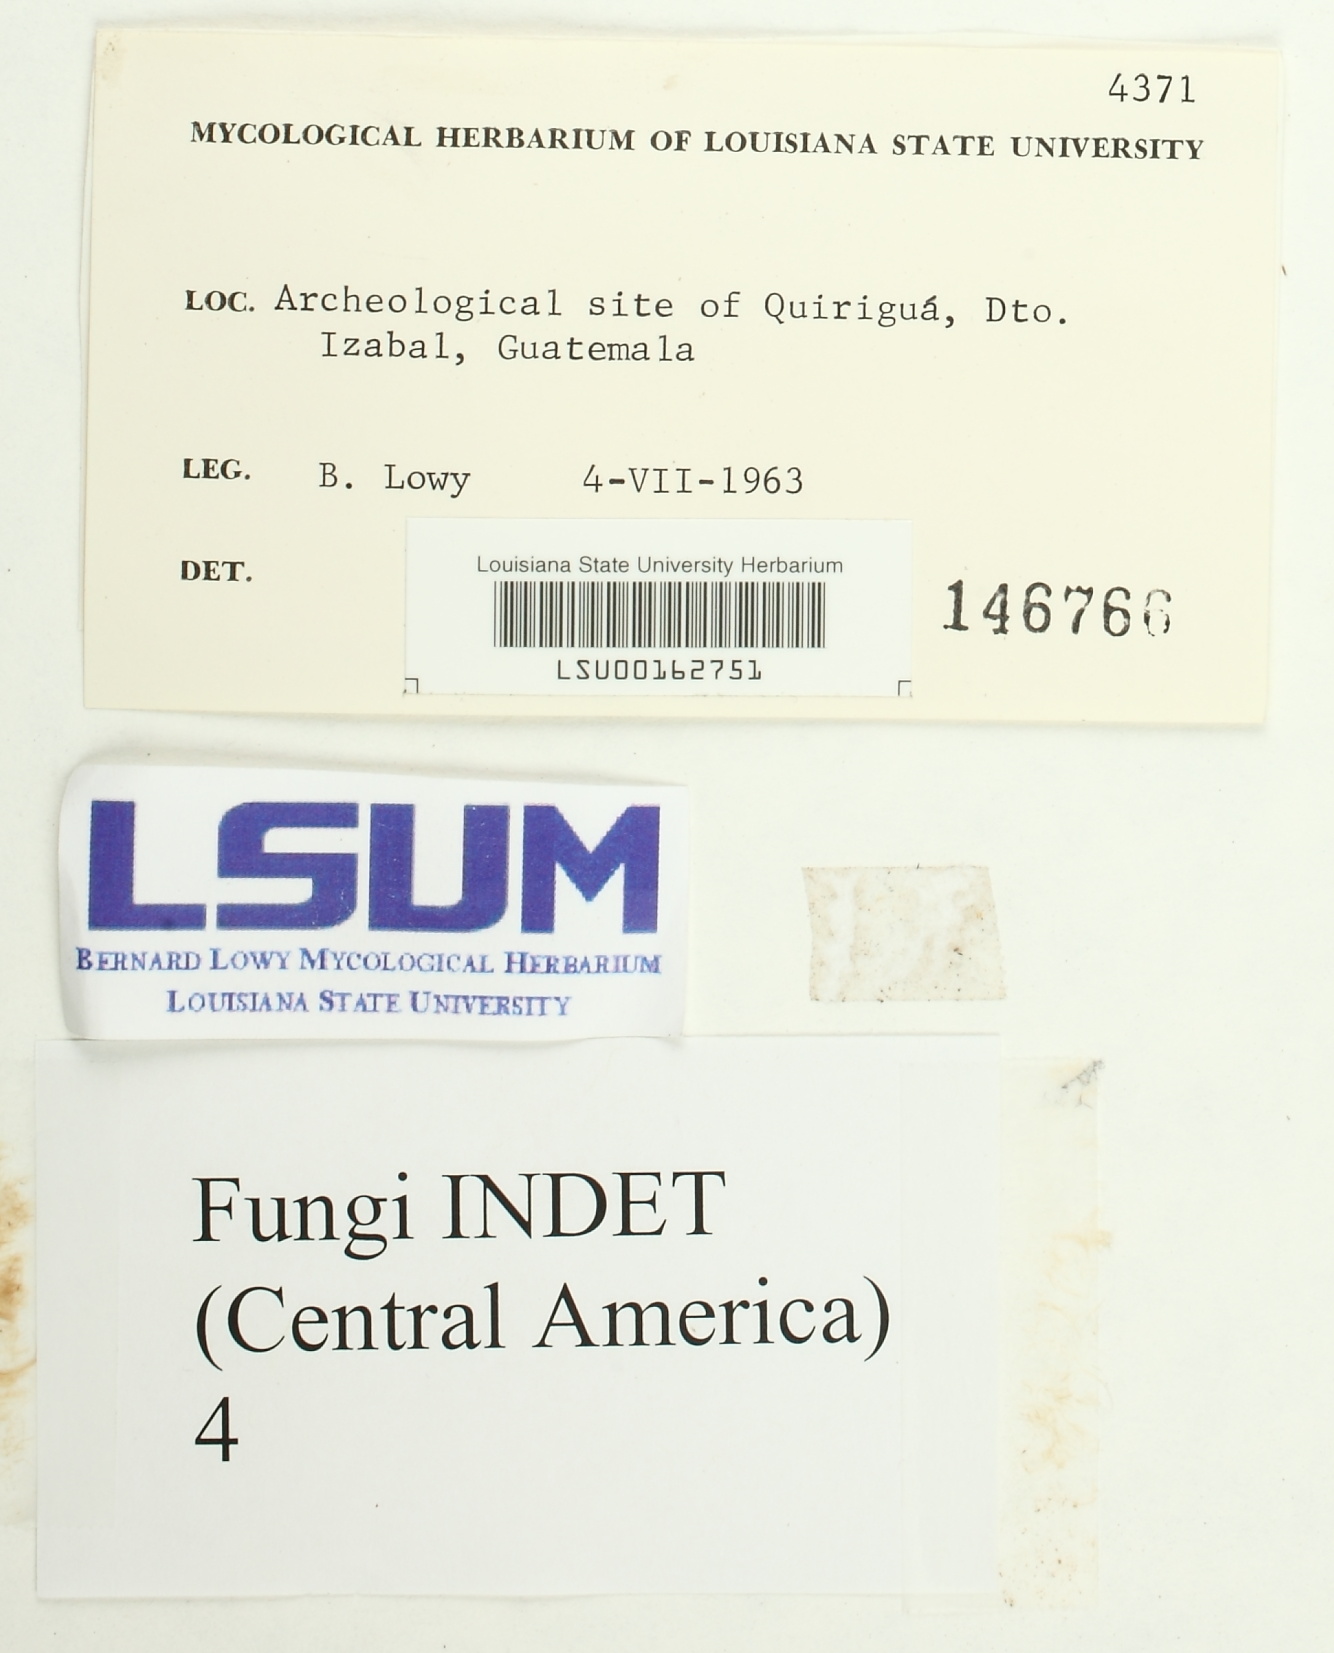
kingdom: Fungi
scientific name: Fungi
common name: Fungi
